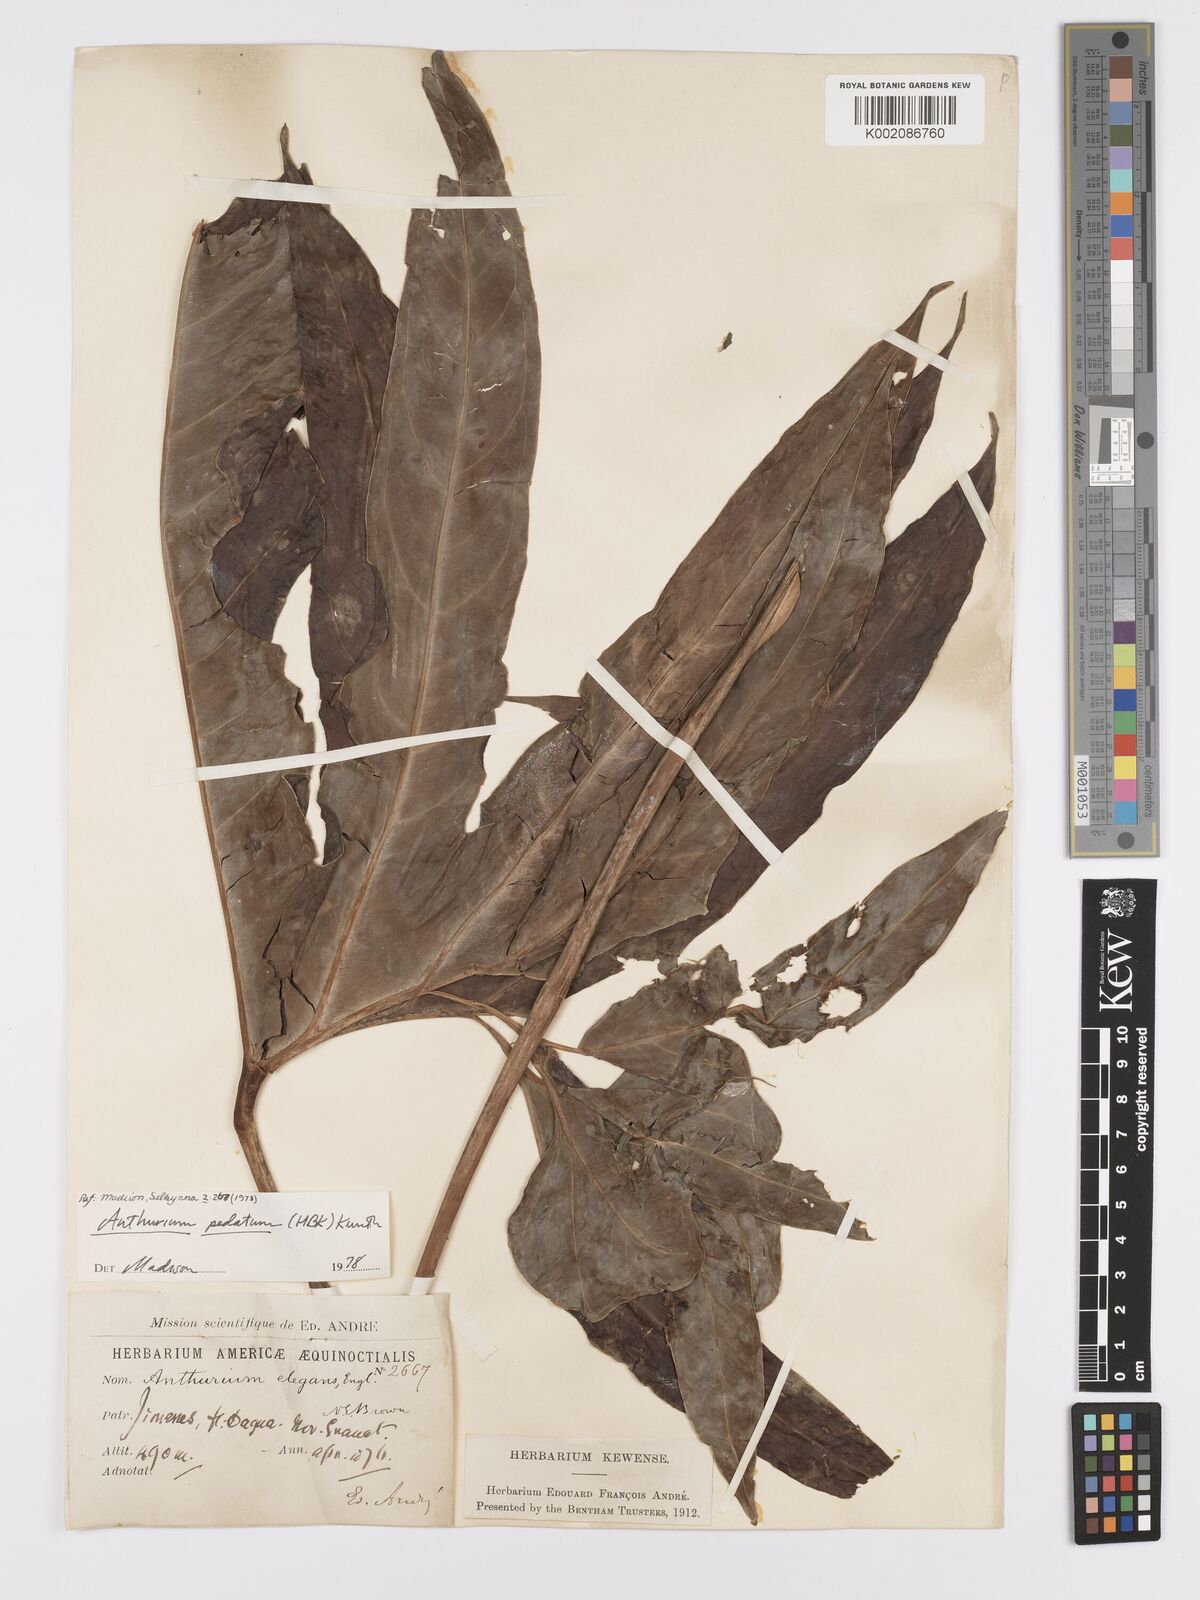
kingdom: Plantae
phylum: Tracheophyta
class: Liliopsida
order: Alismatales
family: Araceae
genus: Anthurium
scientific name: Anthurium pedatum
